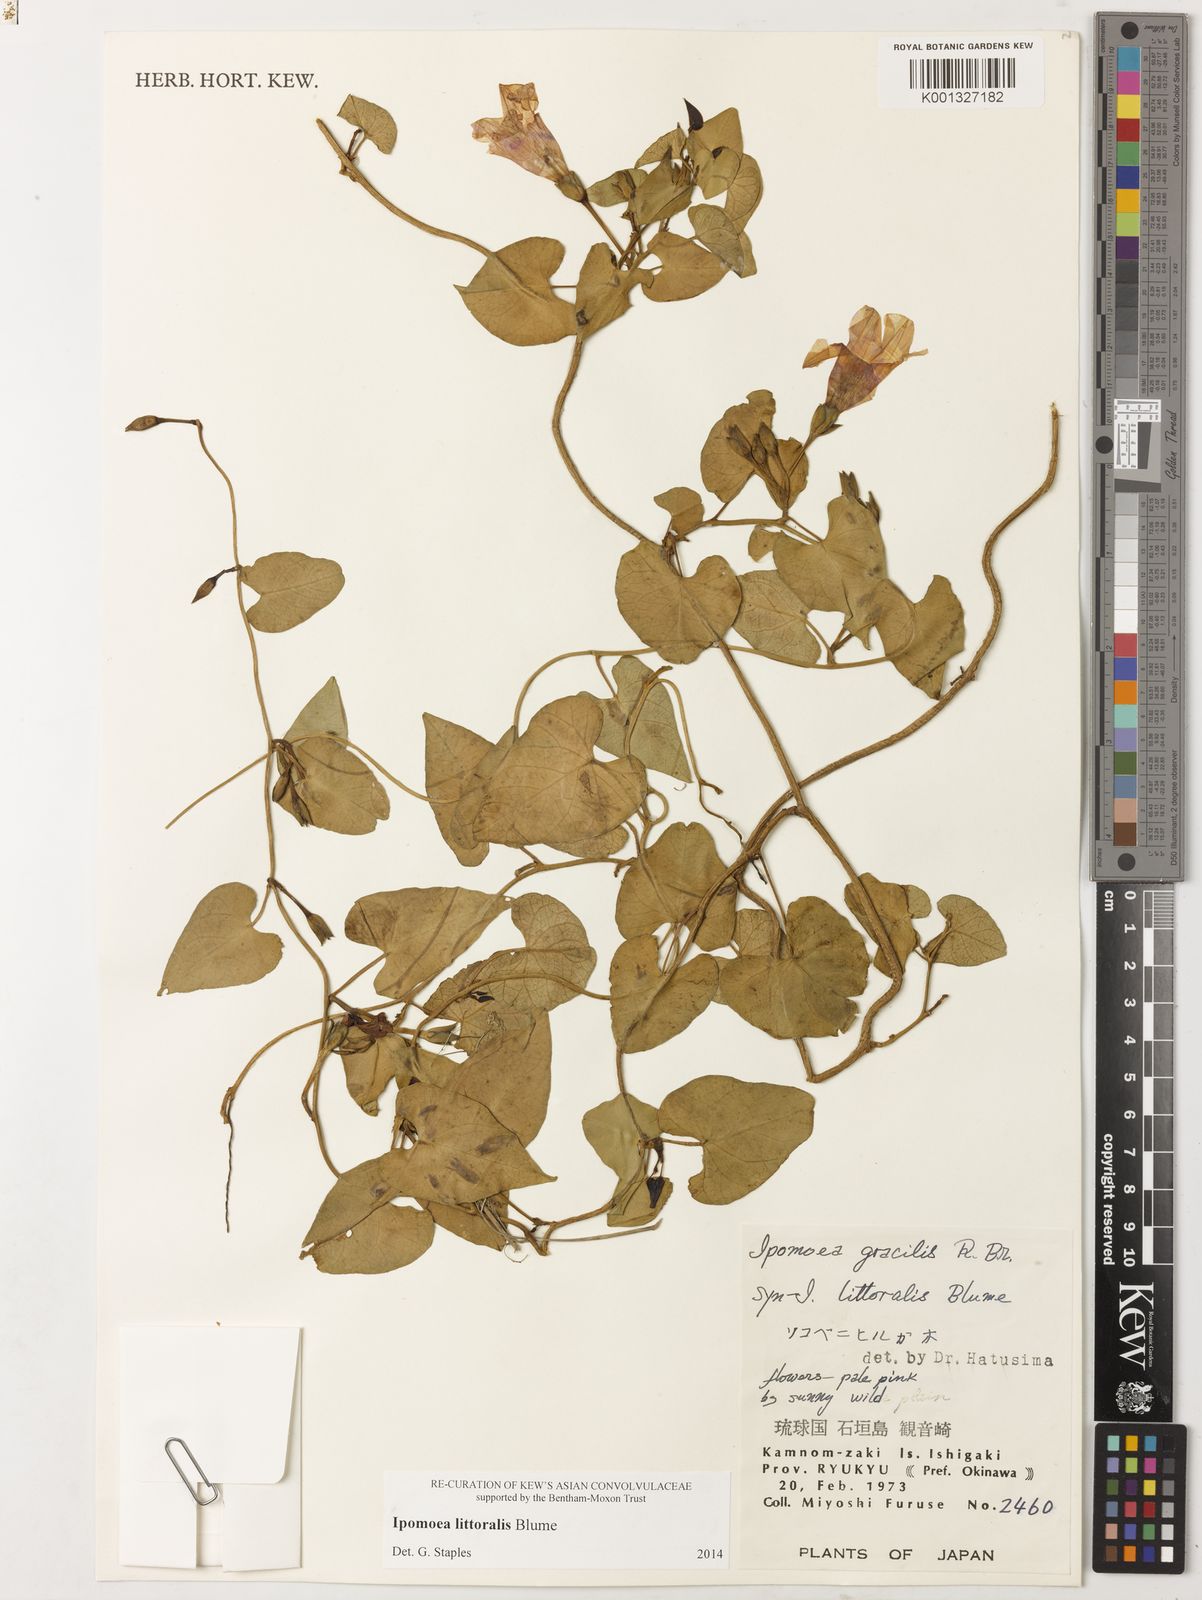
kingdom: Plantae
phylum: Tracheophyta
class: Magnoliopsida
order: Solanales
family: Convolvulaceae
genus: Ipomoea
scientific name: Ipomoea littoralis
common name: Coastal morning glory
